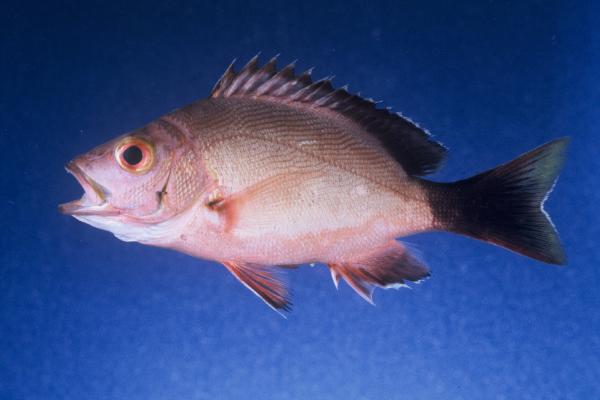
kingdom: Animalia
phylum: Chordata
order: Perciformes
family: Lutjanidae
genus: Lutjanus
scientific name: Lutjanus gibbus
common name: Humpback snapper
